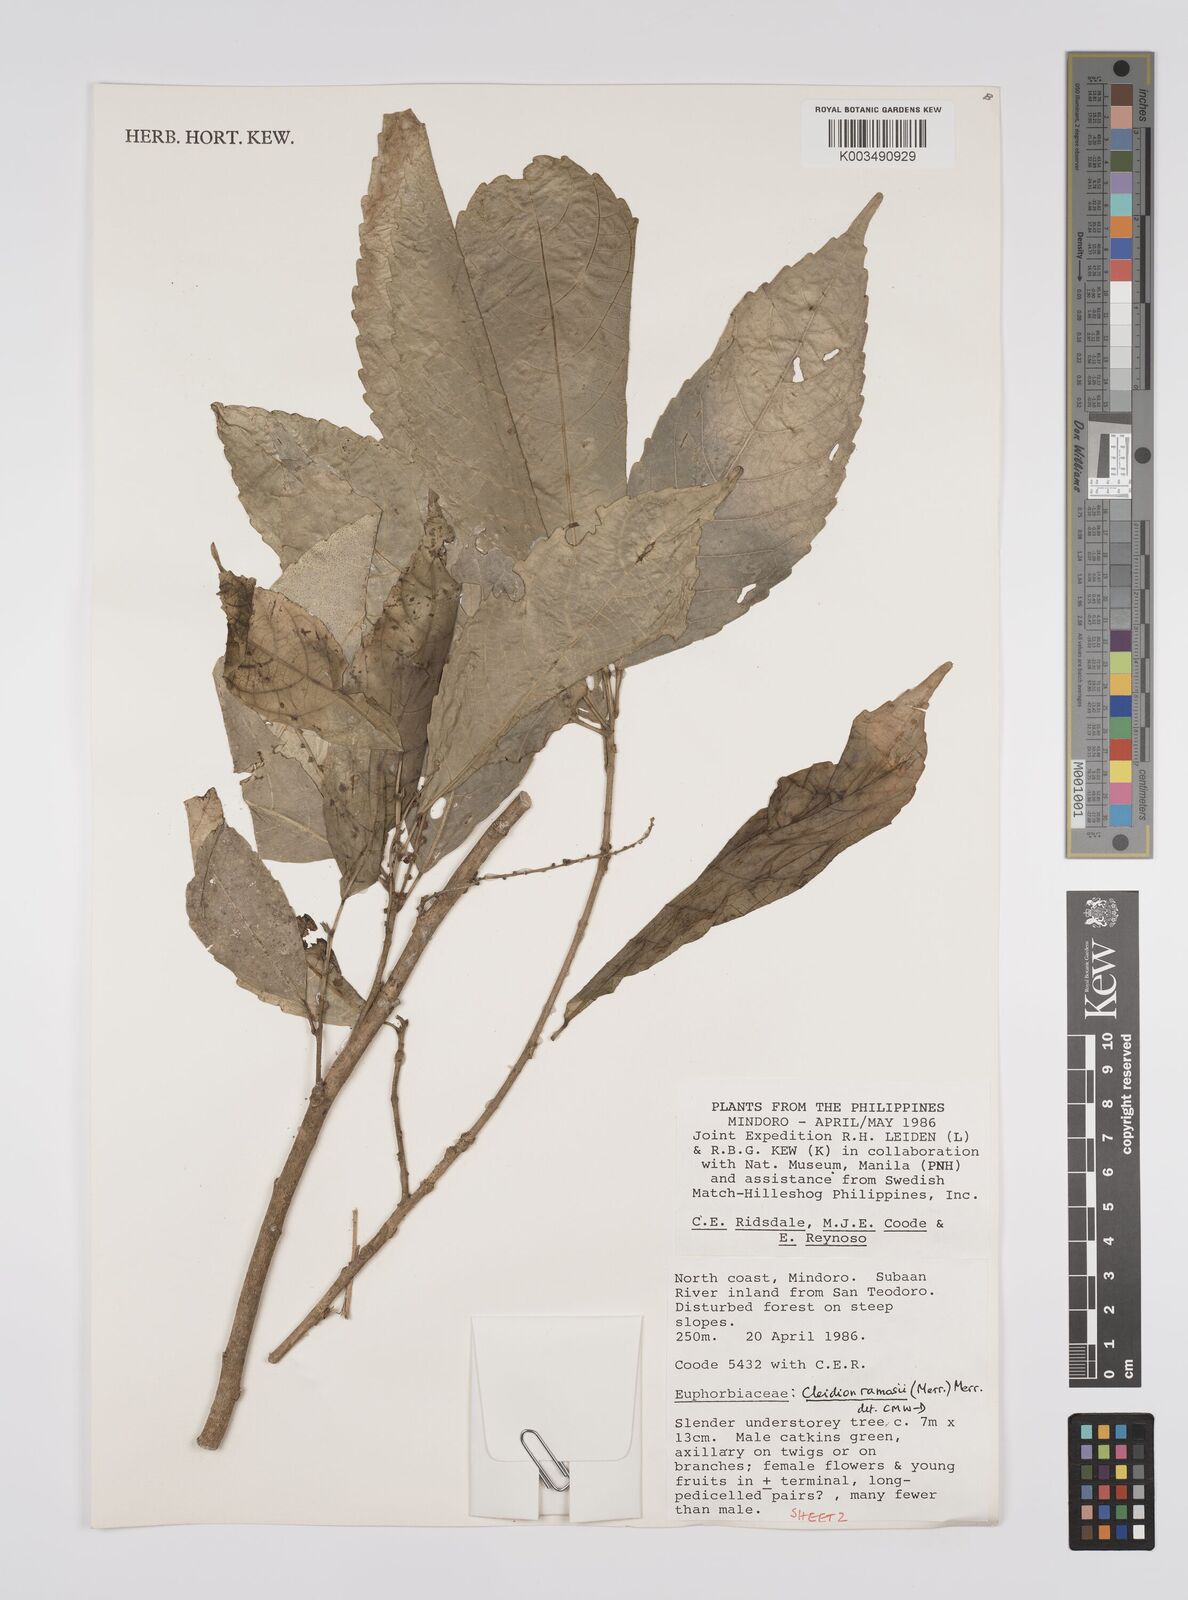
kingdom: Plantae
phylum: Tracheophyta
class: Magnoliopsida
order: Malpighiales
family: Euphorbiaceae
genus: Cleidion
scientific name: Cleidion ramosii
